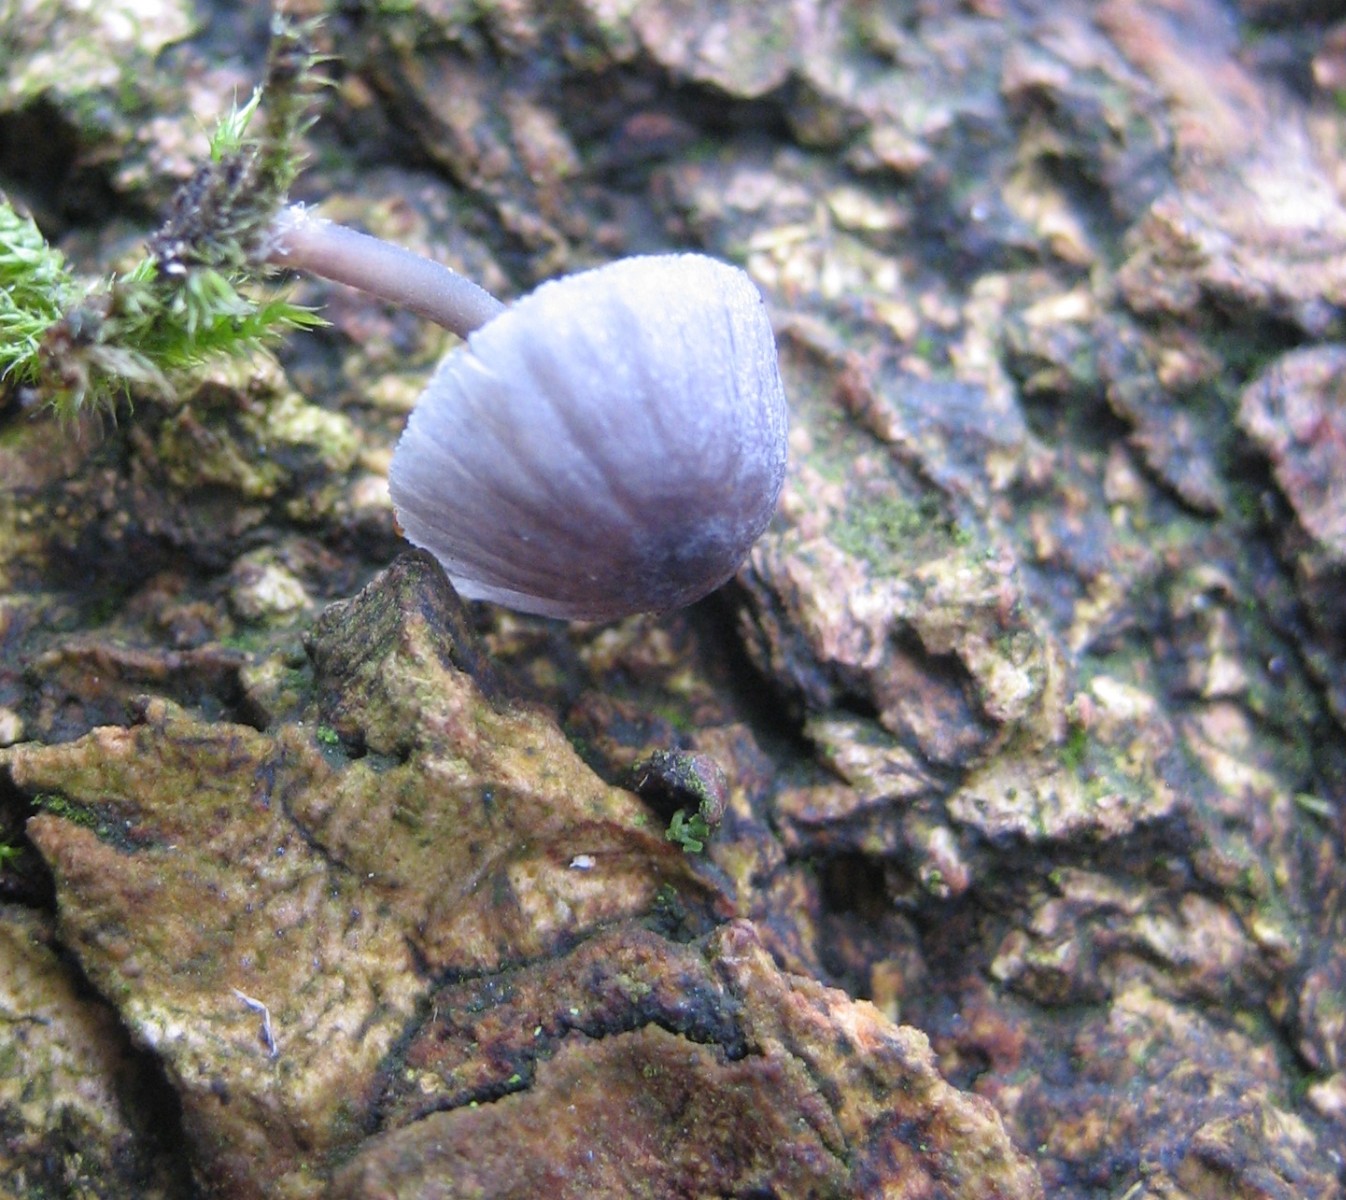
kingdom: Fungi
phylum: Basidiomycota
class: Agaricomycetes
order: Agaricales
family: Mycenaceae
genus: Mycena
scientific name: Mycena pseudocorticola
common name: gråblå bark-huesvamp
